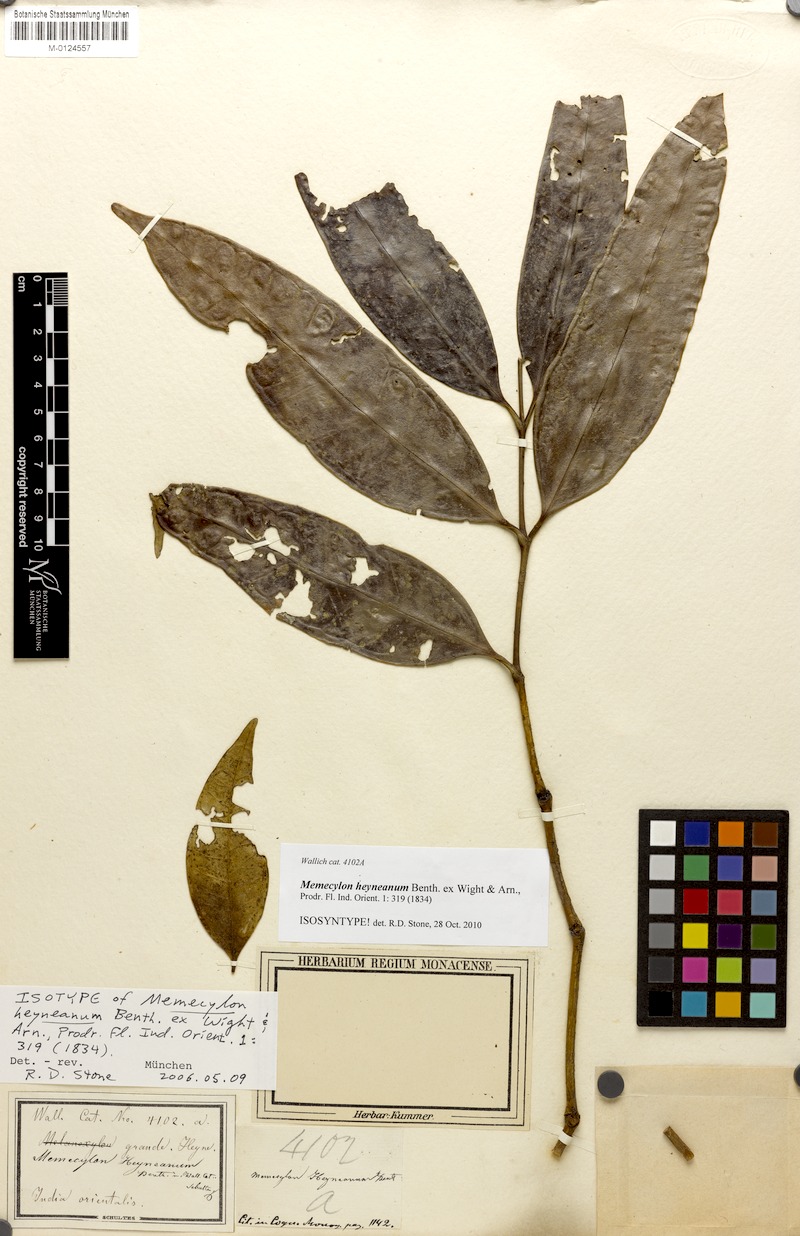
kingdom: Plantae
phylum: Tracheophyta
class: Magnoliopsida
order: Myrtales
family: Melastomataceae
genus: Memecylon
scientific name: Memecylon heyneanum
